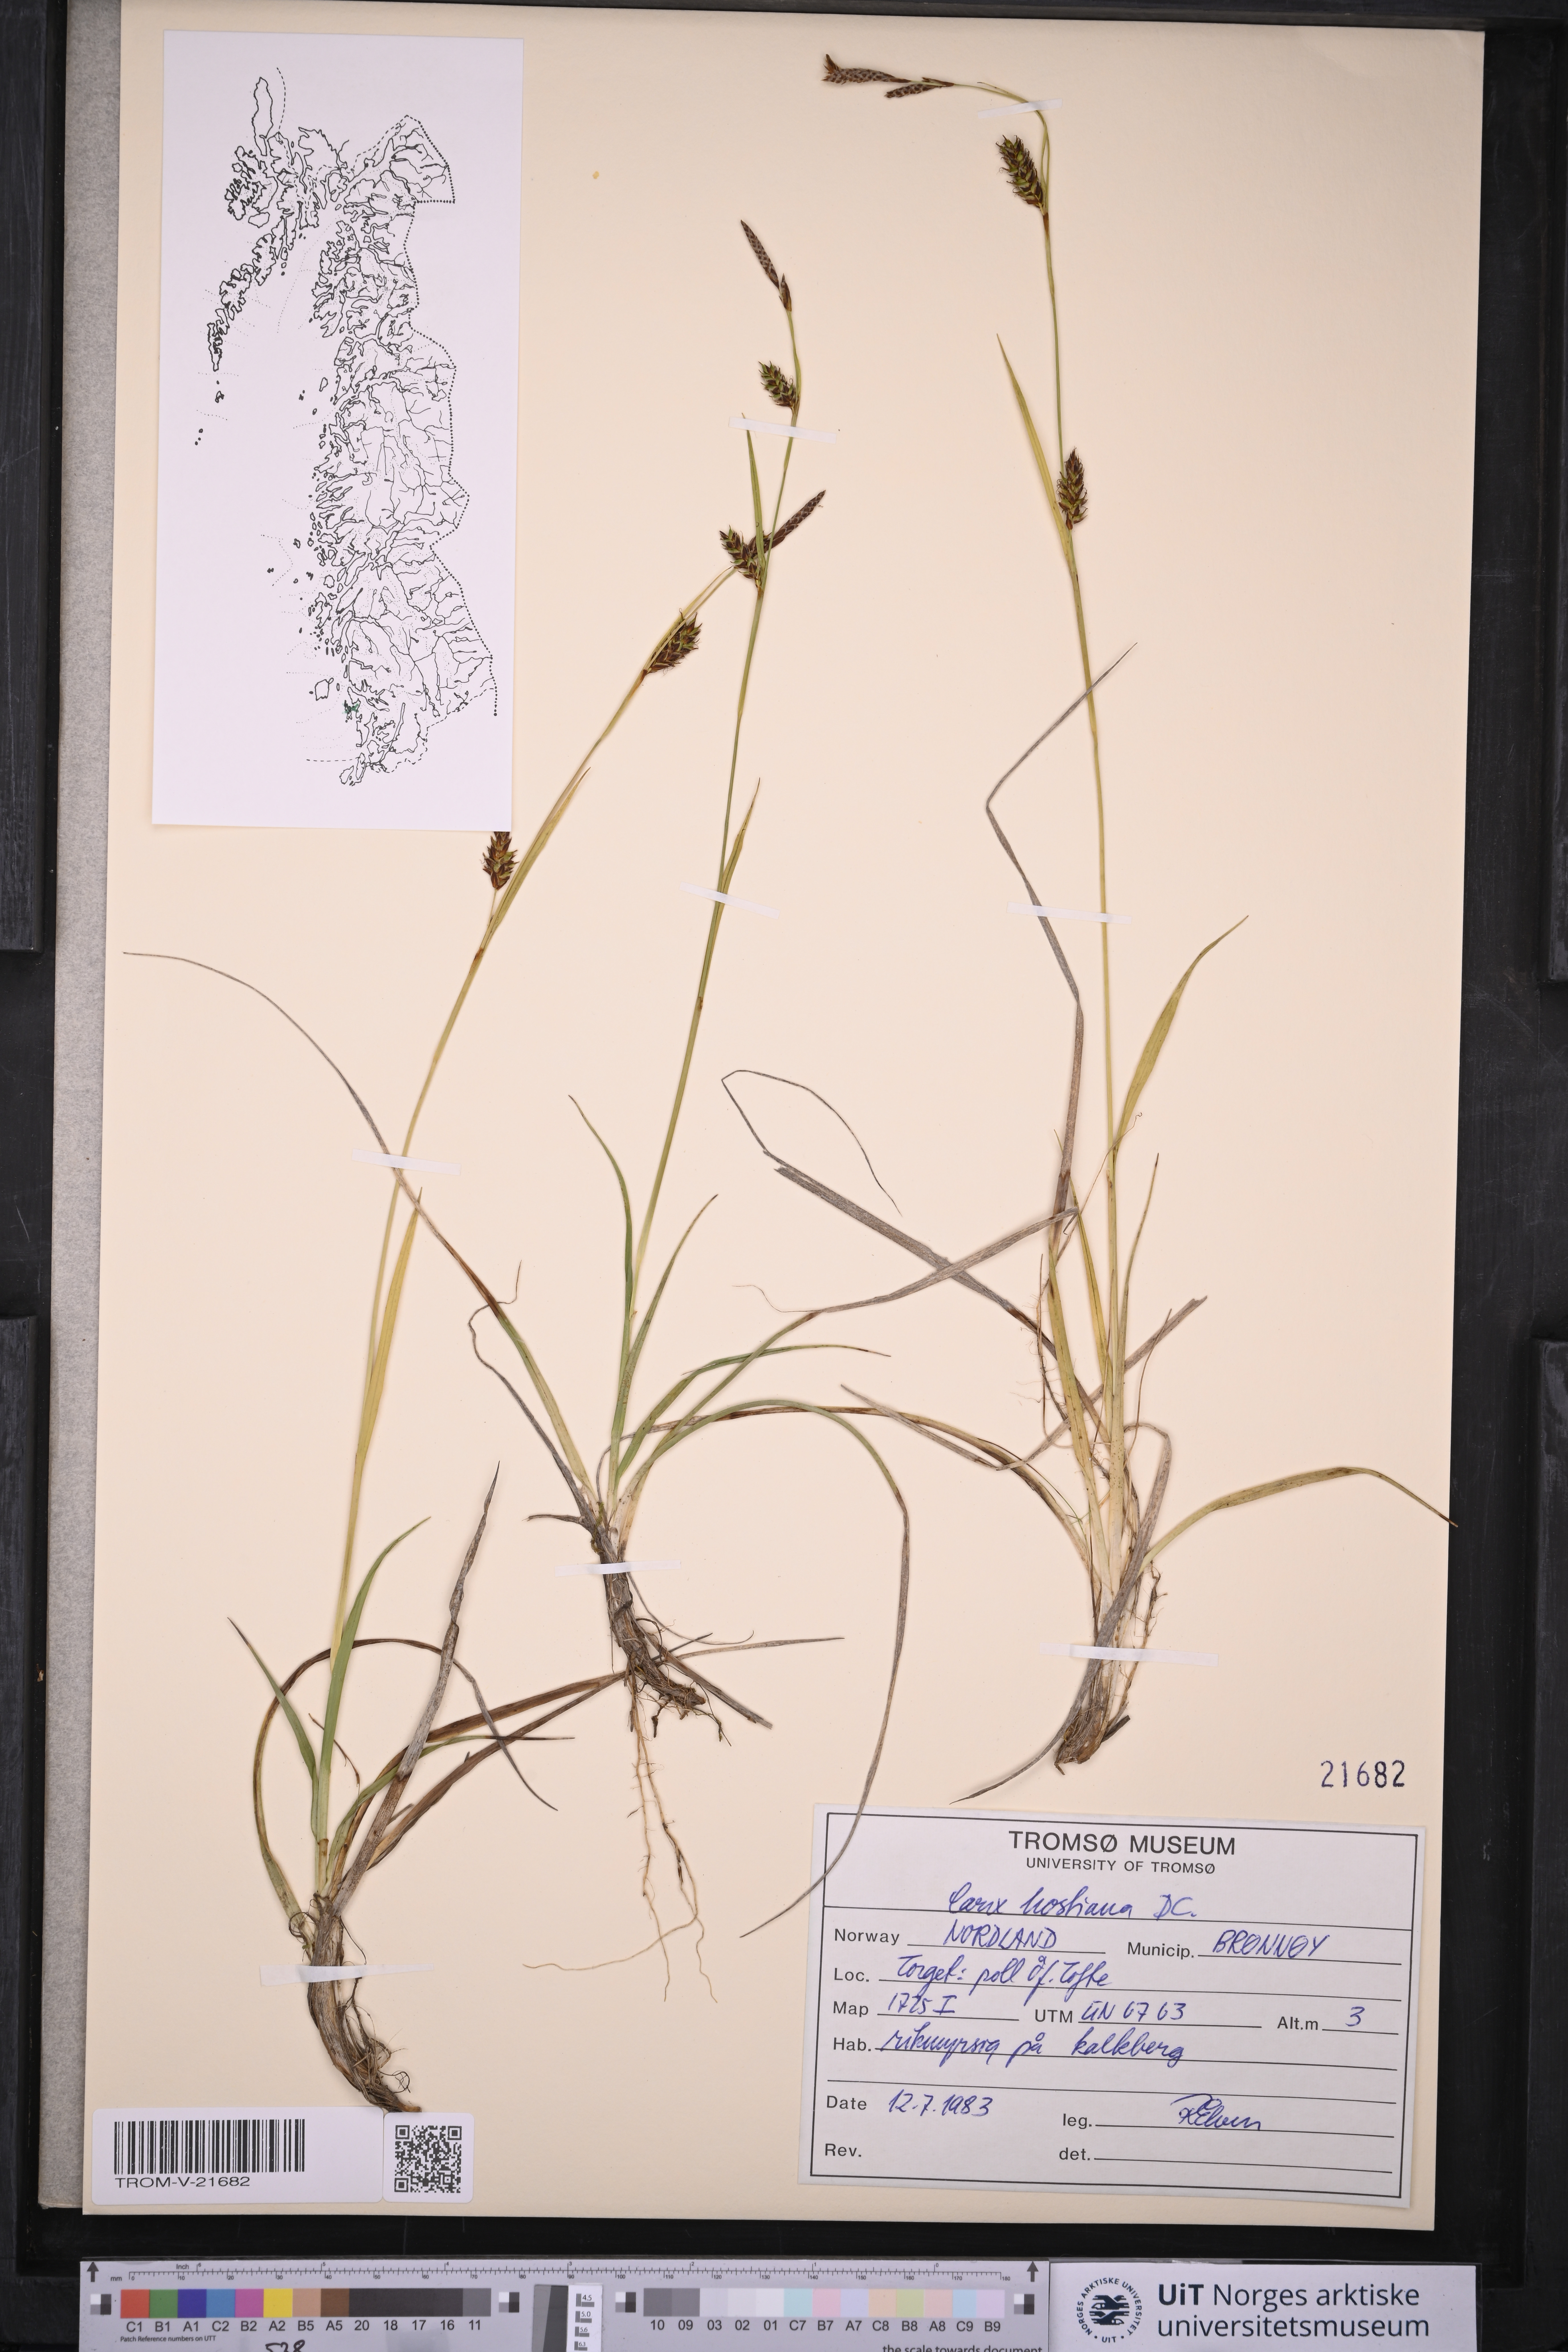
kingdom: Plantae
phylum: Tracheophyta
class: Liliopsida
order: Poales
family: Cyperaceae
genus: Carex
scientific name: Carex hostiana
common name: Tawny sedge
